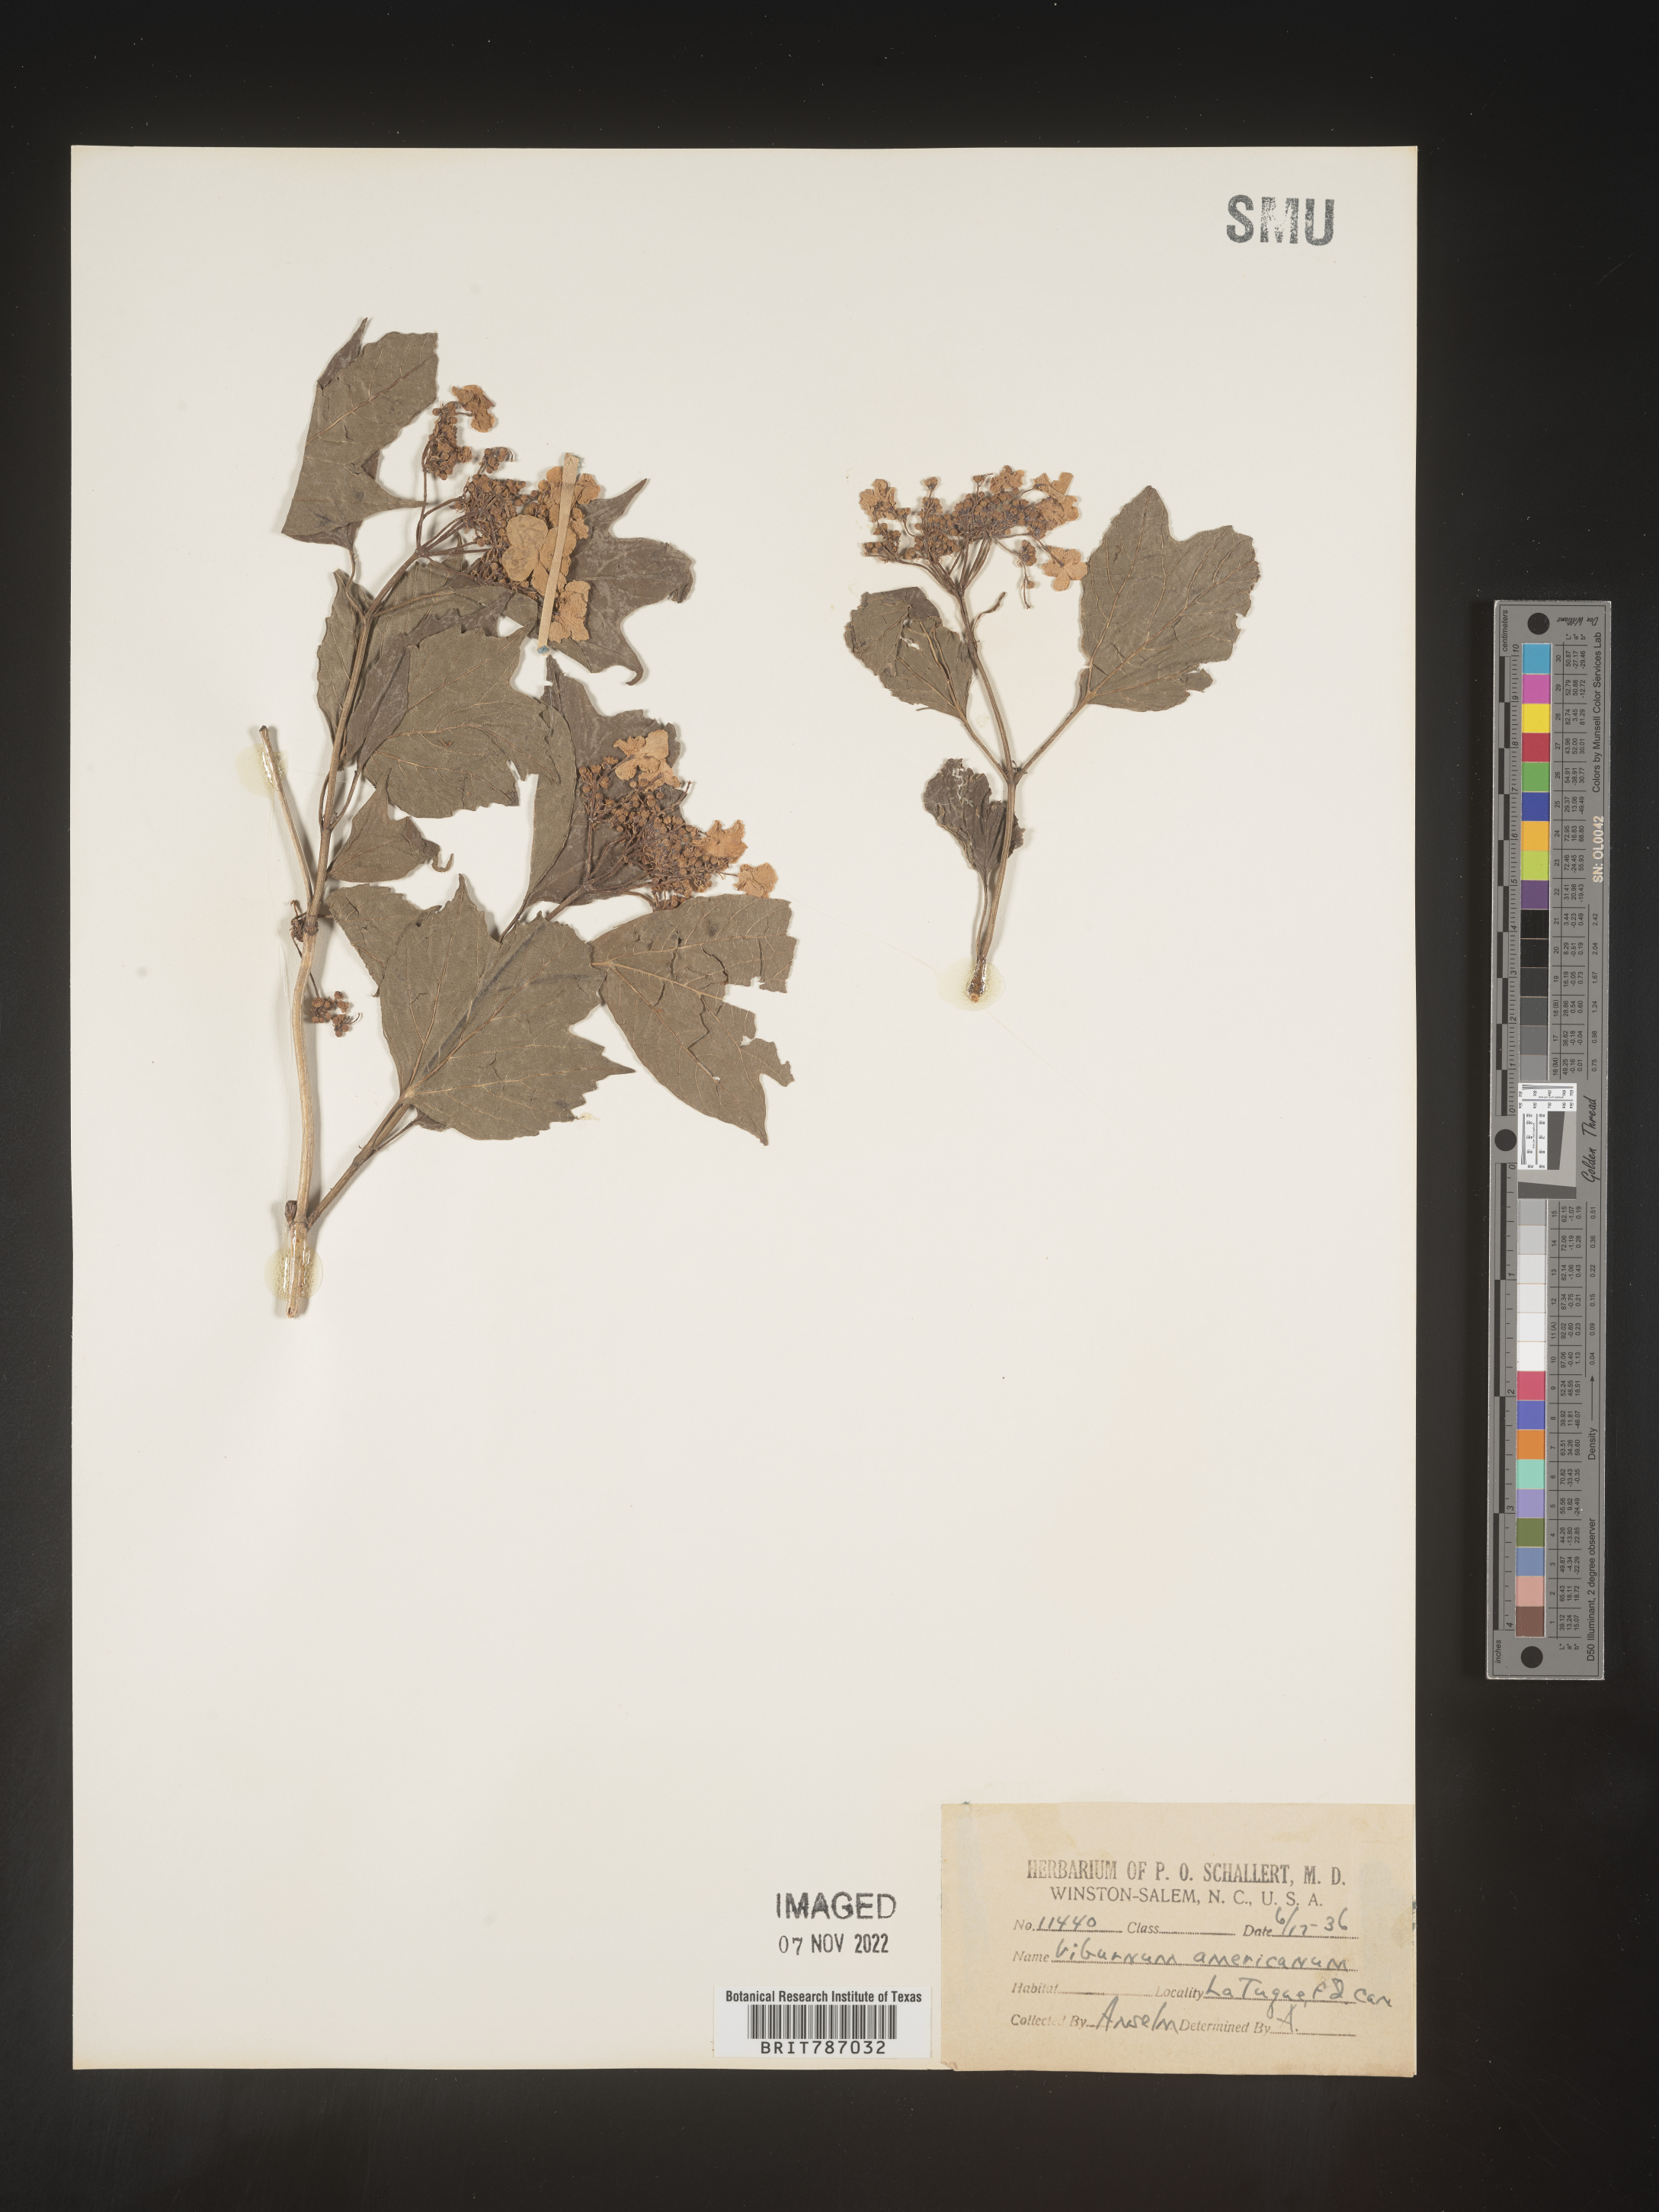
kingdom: Plantae
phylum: Tracheophyta
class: Magnoliopsida
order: Dipsacales
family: Viburnaceae
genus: Viburnum
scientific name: Viburnum opulus
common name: Guelder-rose
